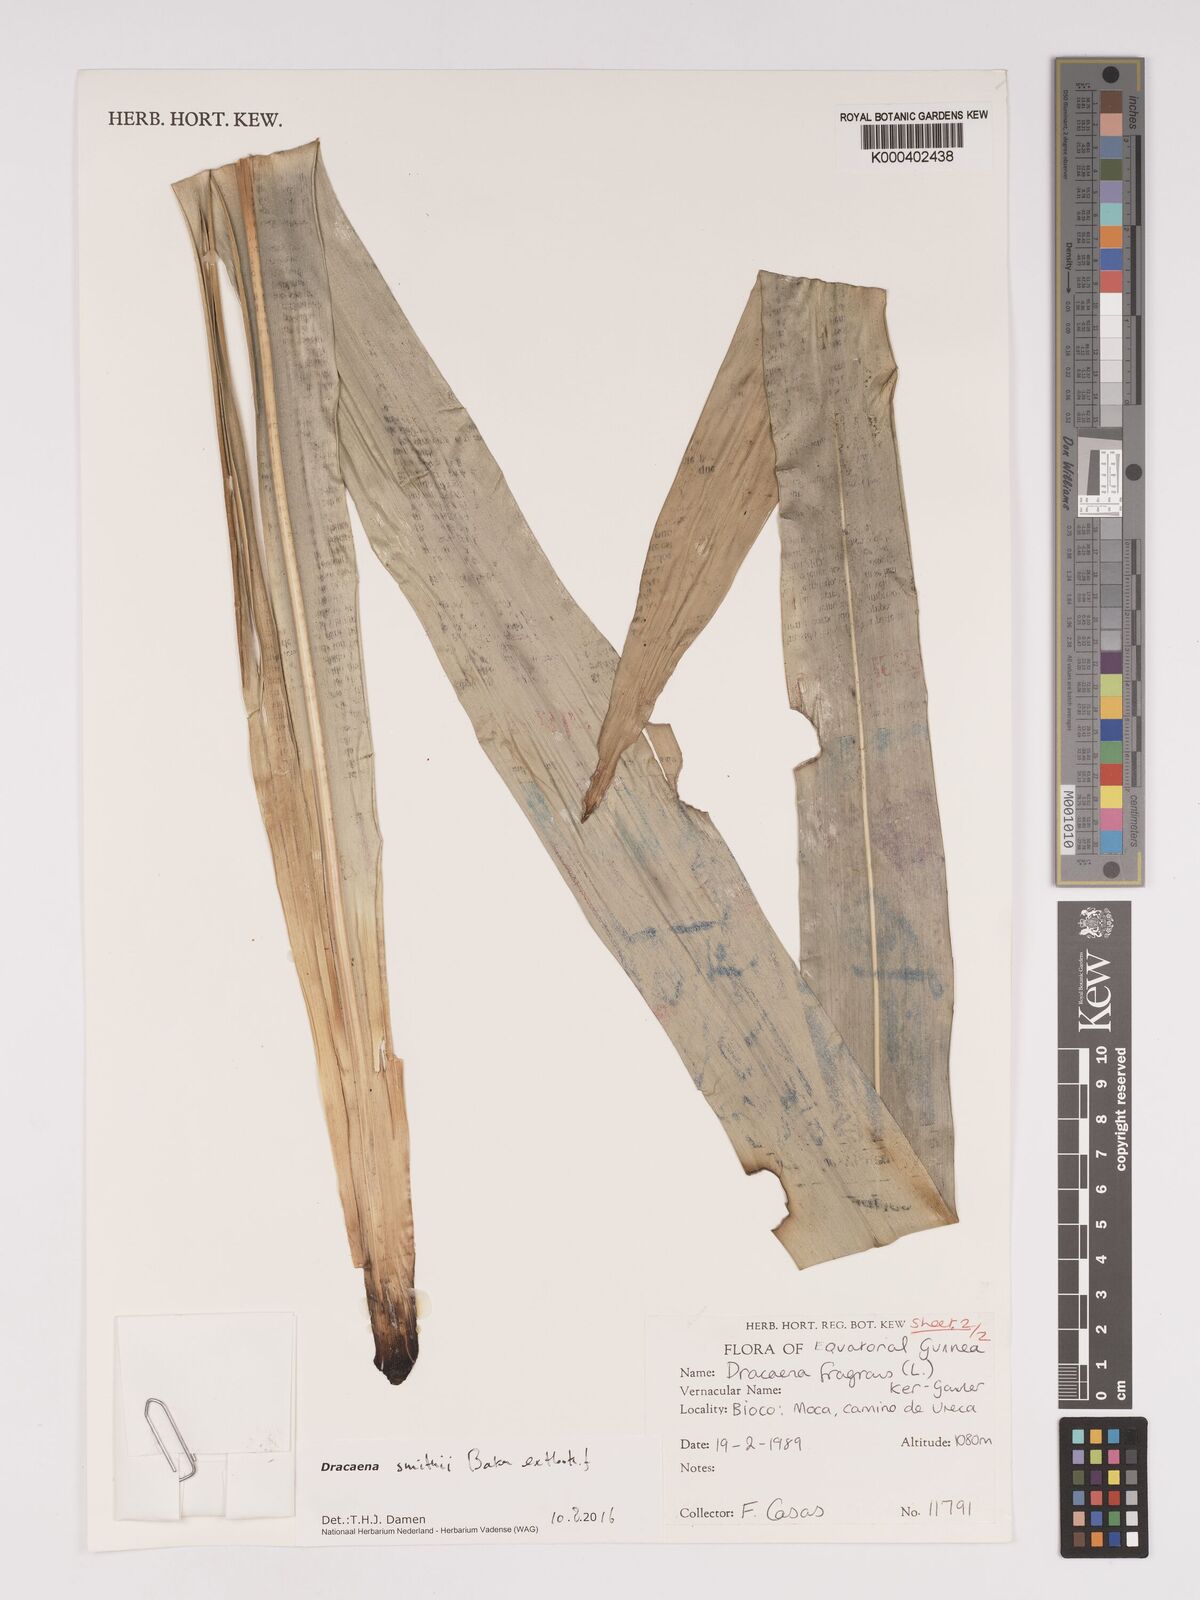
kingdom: Plantae
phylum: Tracheophyta
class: Liliopsida
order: Asparagales
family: Asparagaceae
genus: Dracaena
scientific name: Dracaena fragrans
